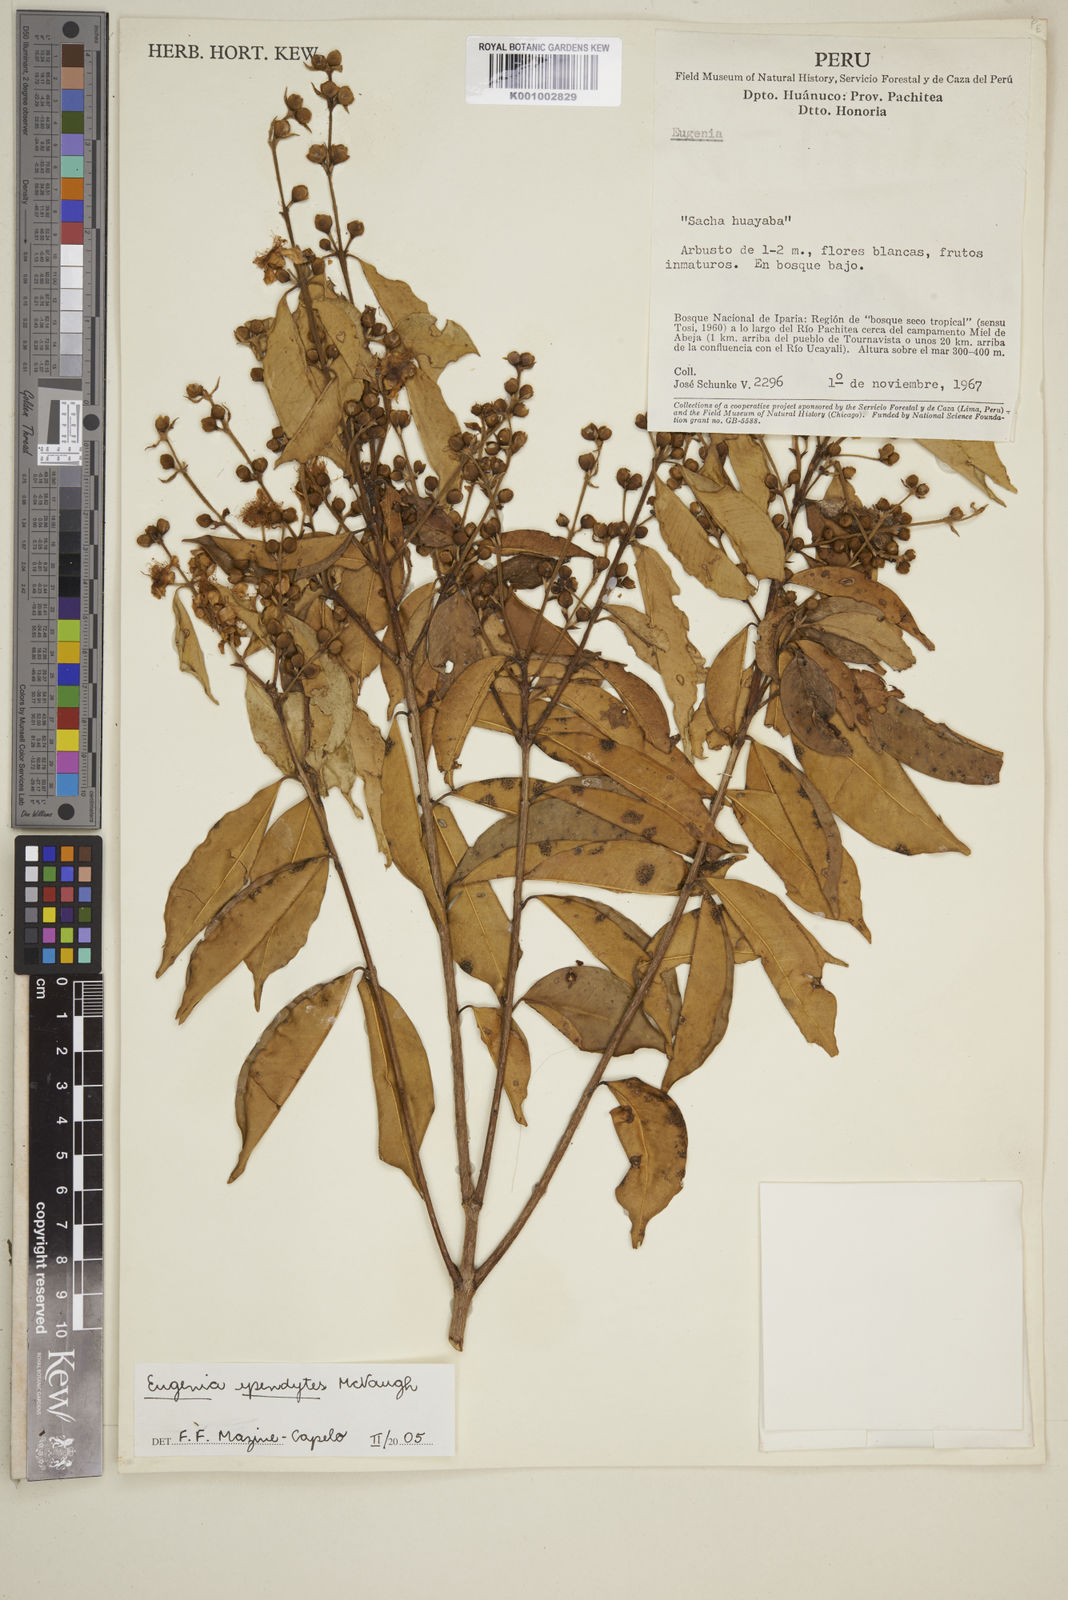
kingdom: Plantae
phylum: Tracheophyta
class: Magnoliopsida
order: Myrtales
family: Myrtaceae
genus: Eugenia
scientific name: Eugenia ependytes
